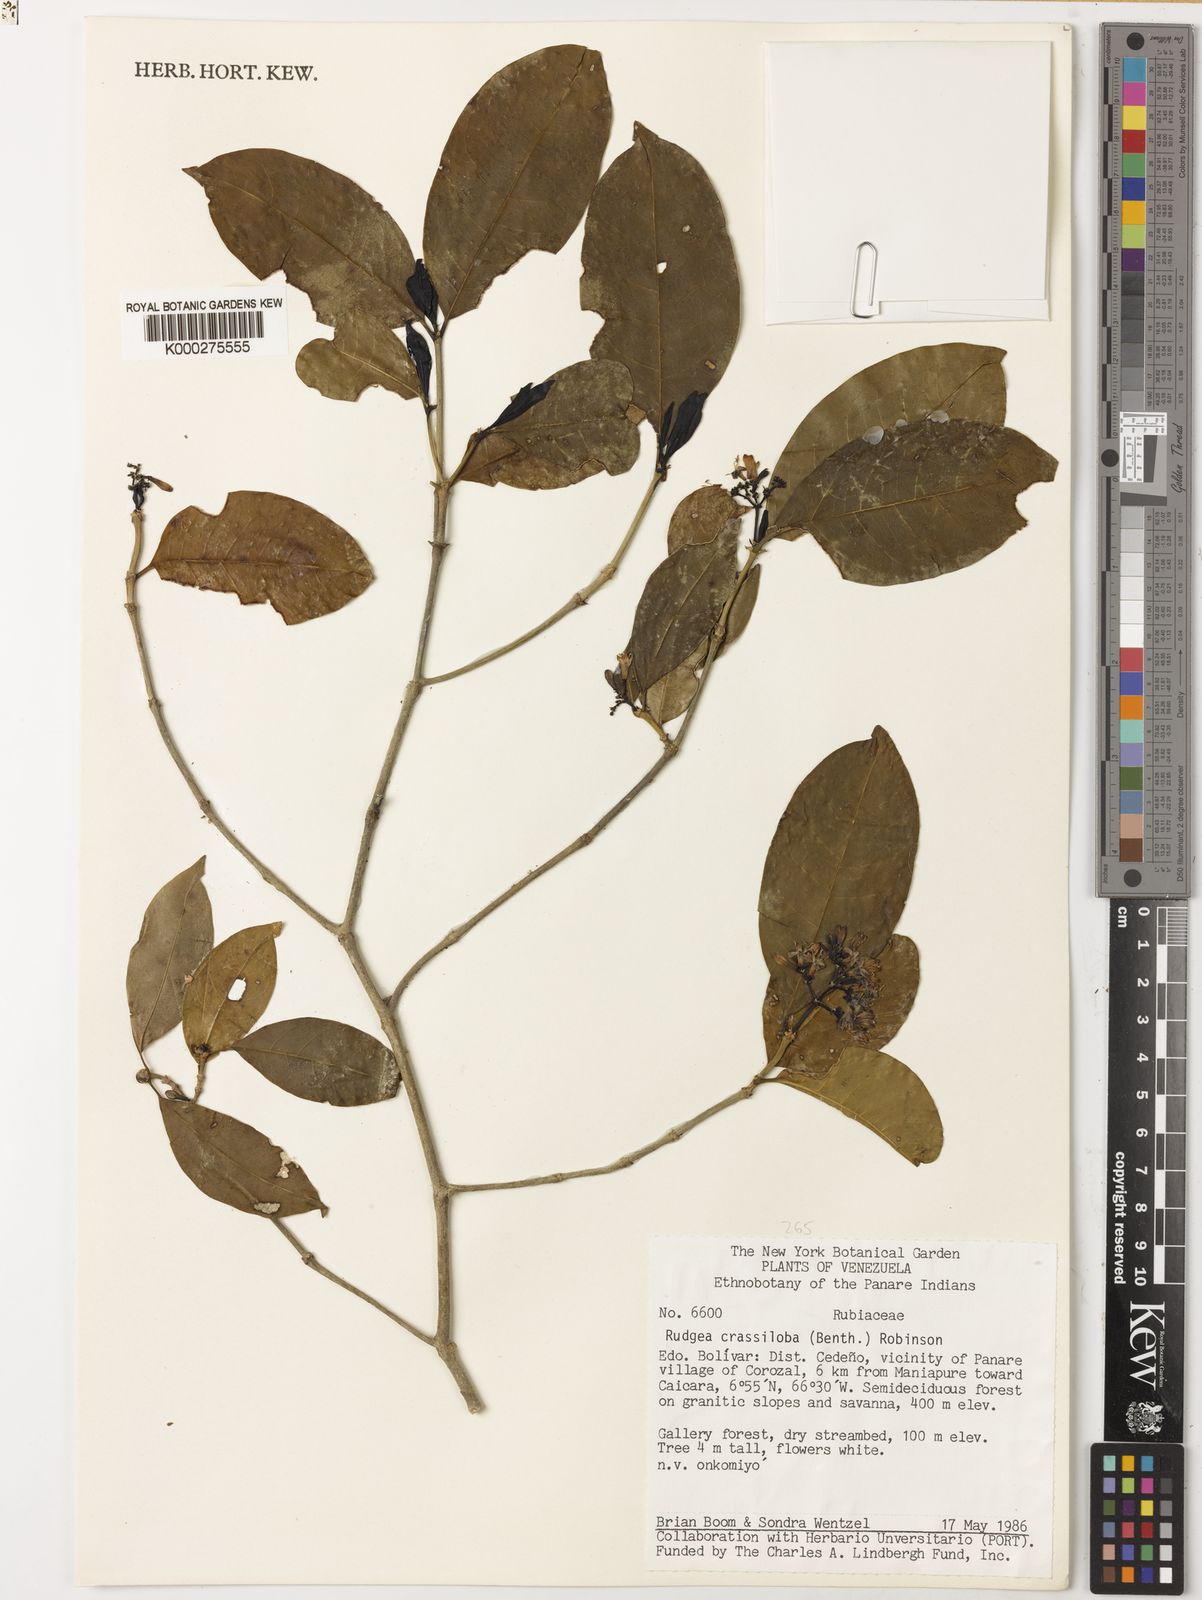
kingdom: Plantae
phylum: Tracheophyta
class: Magnoliopsida
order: Gentianales
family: Rubiaceae
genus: Rudgea
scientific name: Rudgea crassiloba
